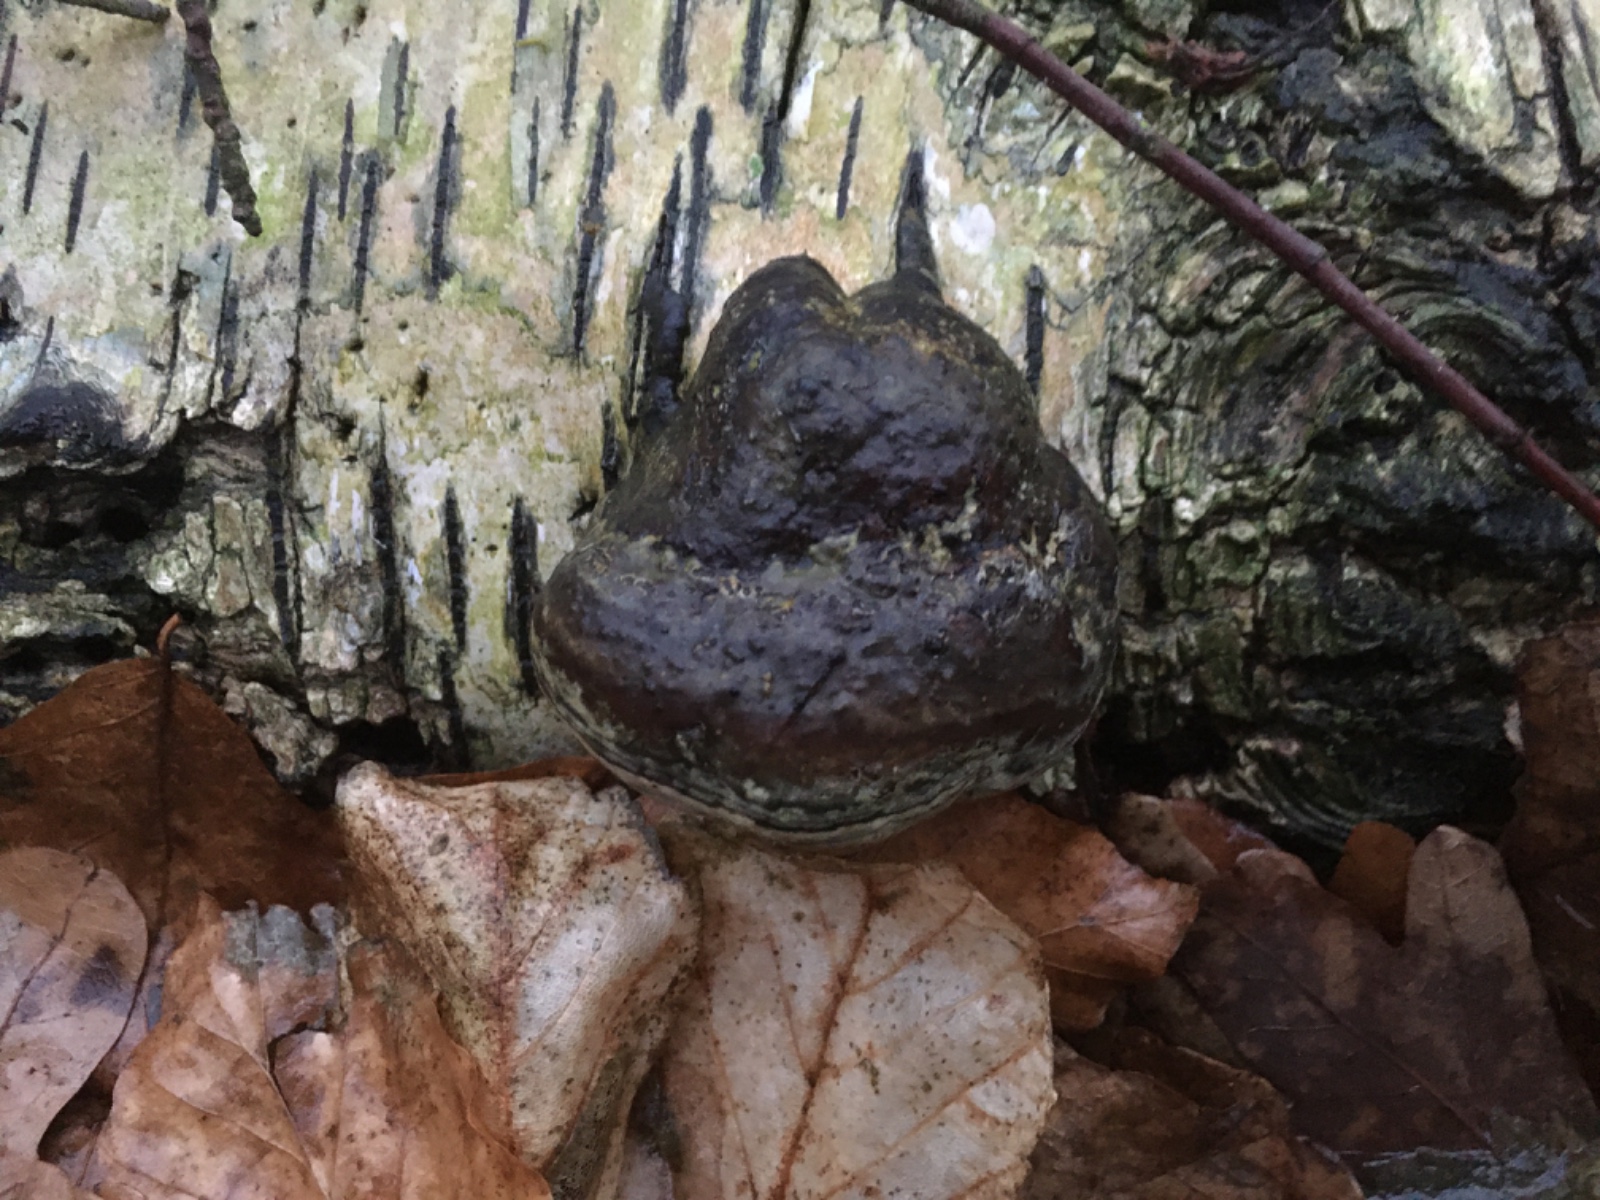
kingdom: Fungi
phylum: Basidiomycota
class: Agaricomycetes
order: Polyporales
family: Polyporaceae
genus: Fomes
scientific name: Fomes fomentarius
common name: tøndersvamp
